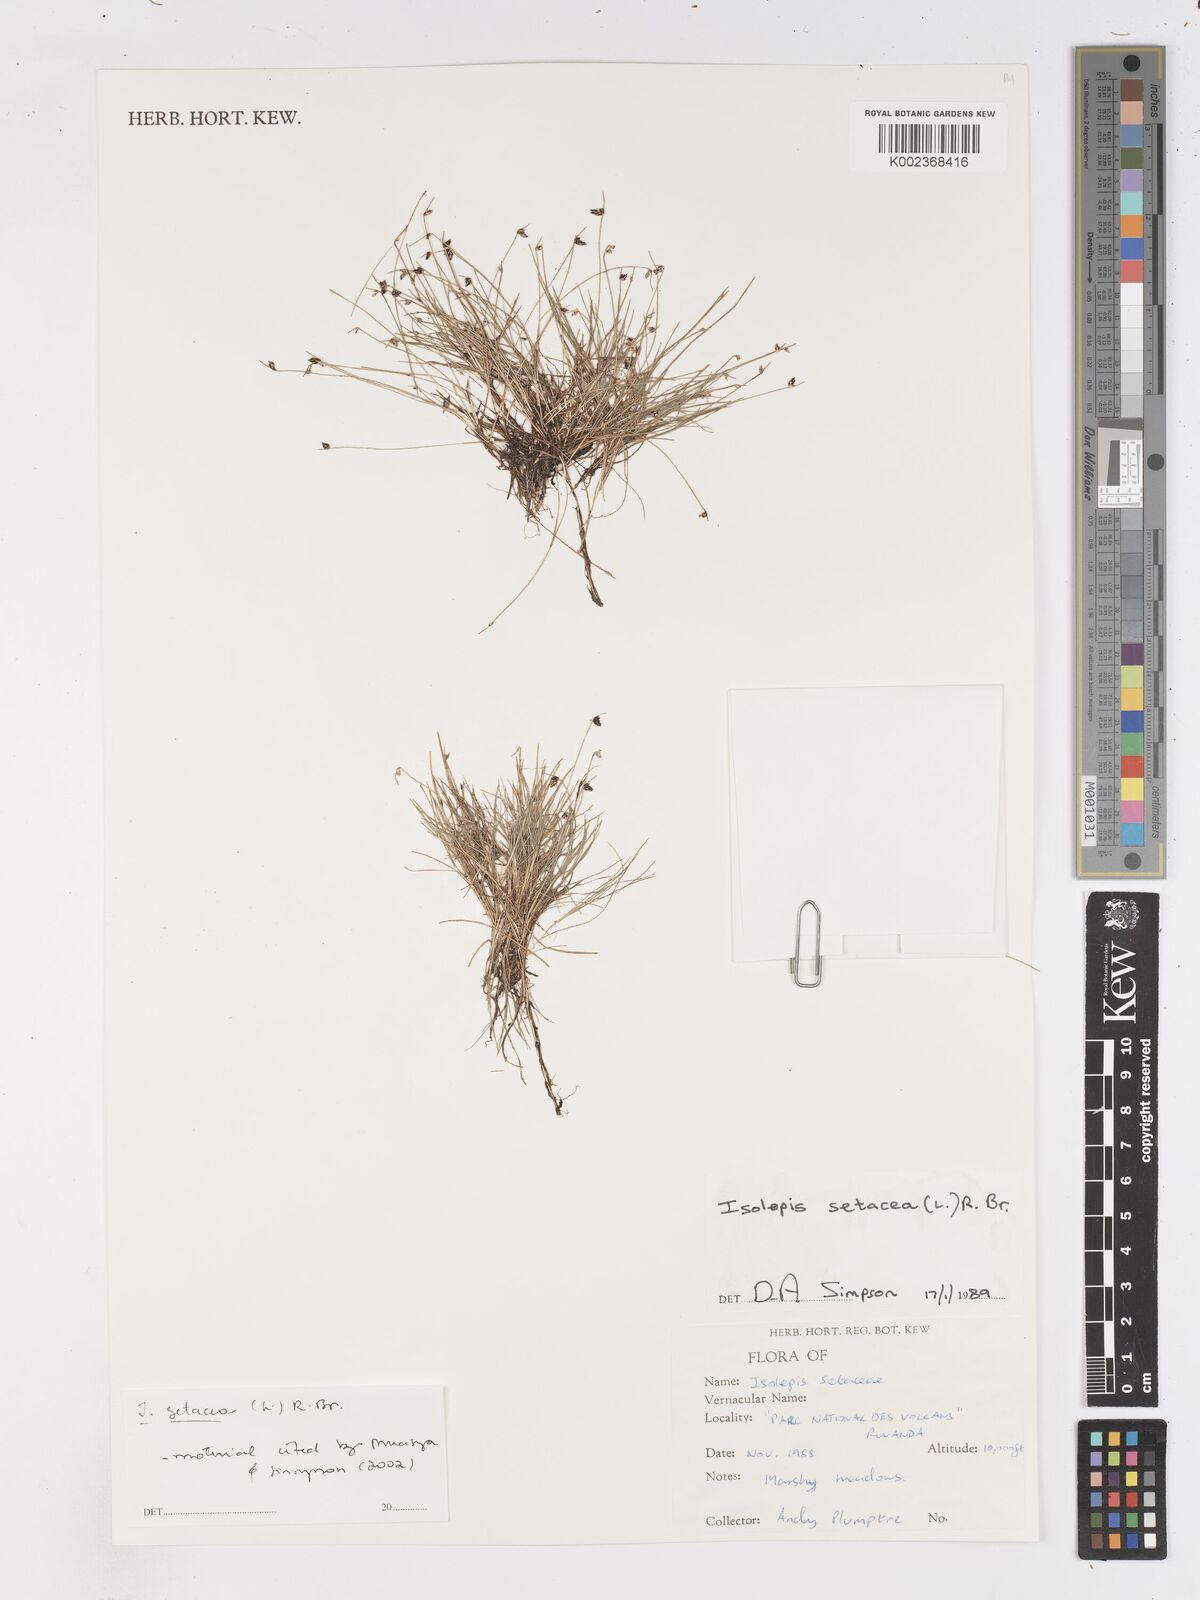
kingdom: Plantae
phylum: Tracheophyta
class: Liliopsida
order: Poales
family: Cyperaceae
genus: Isolepis
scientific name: Isolepis setacea
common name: Bristle club-rush
